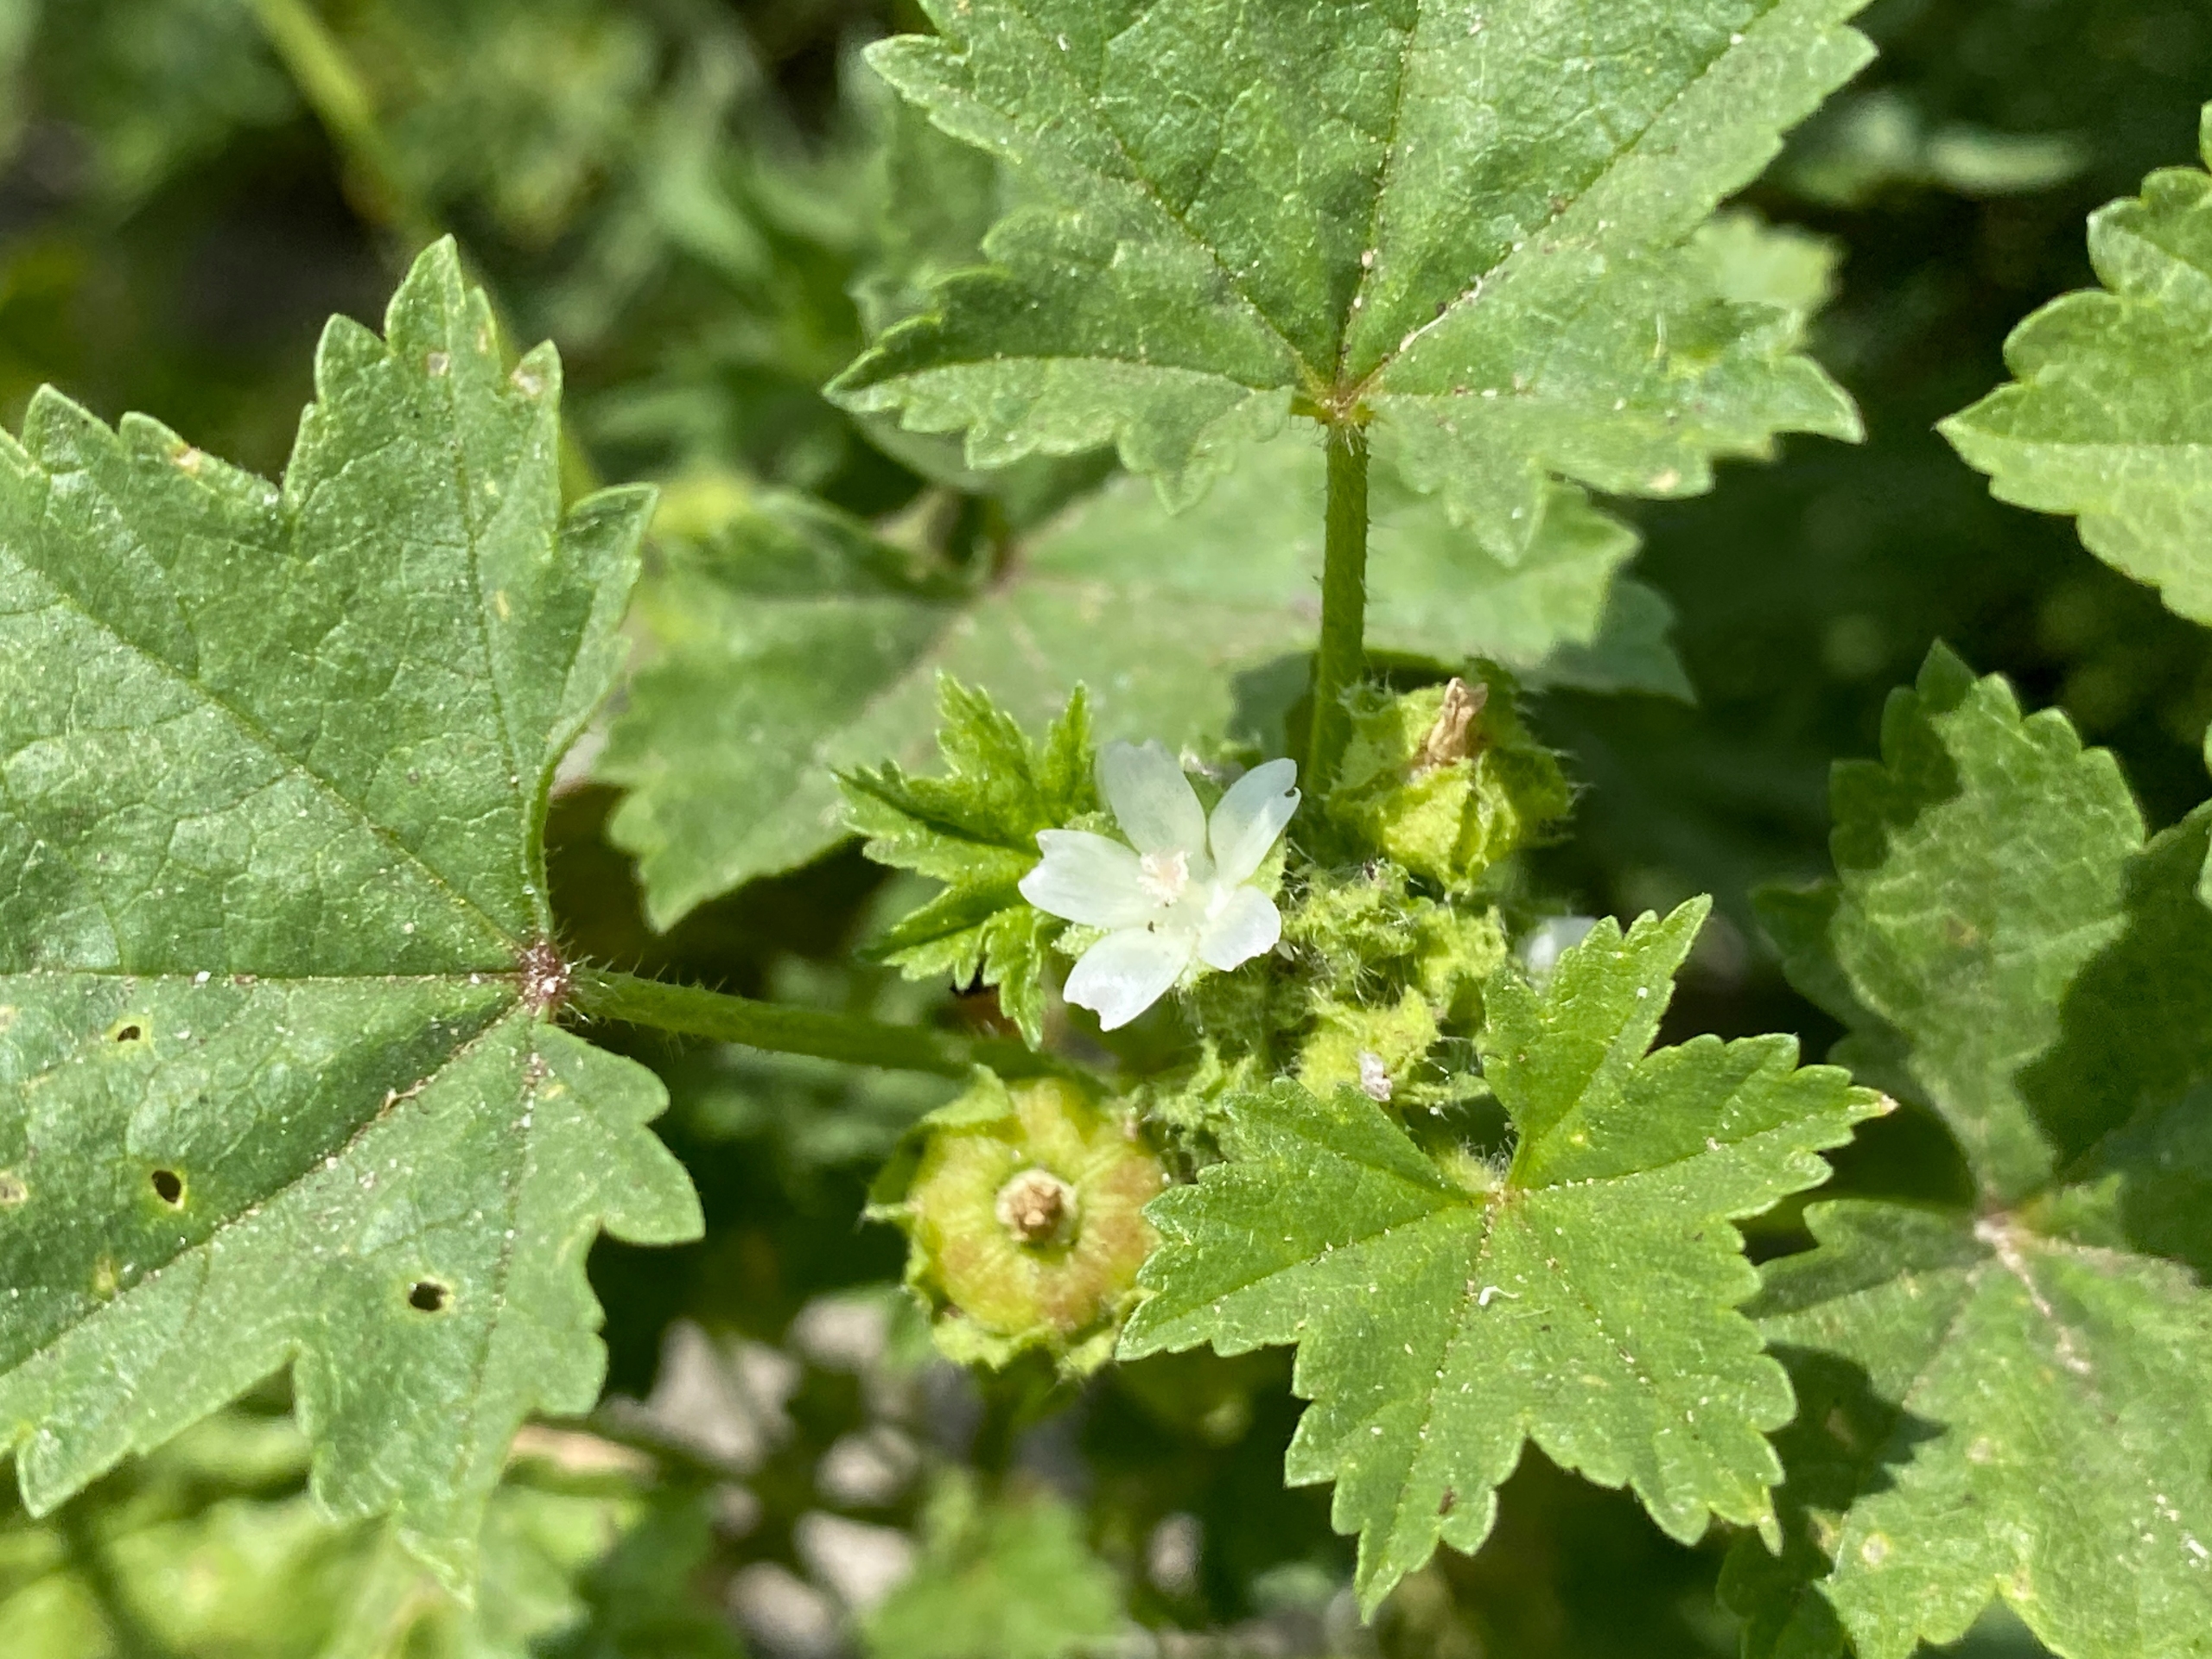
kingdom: Plantae
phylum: Tracheophyta
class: Magnoliopsida
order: Malvales
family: Malvaceae
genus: Malva
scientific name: Malva pusilla
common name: Liden katost
